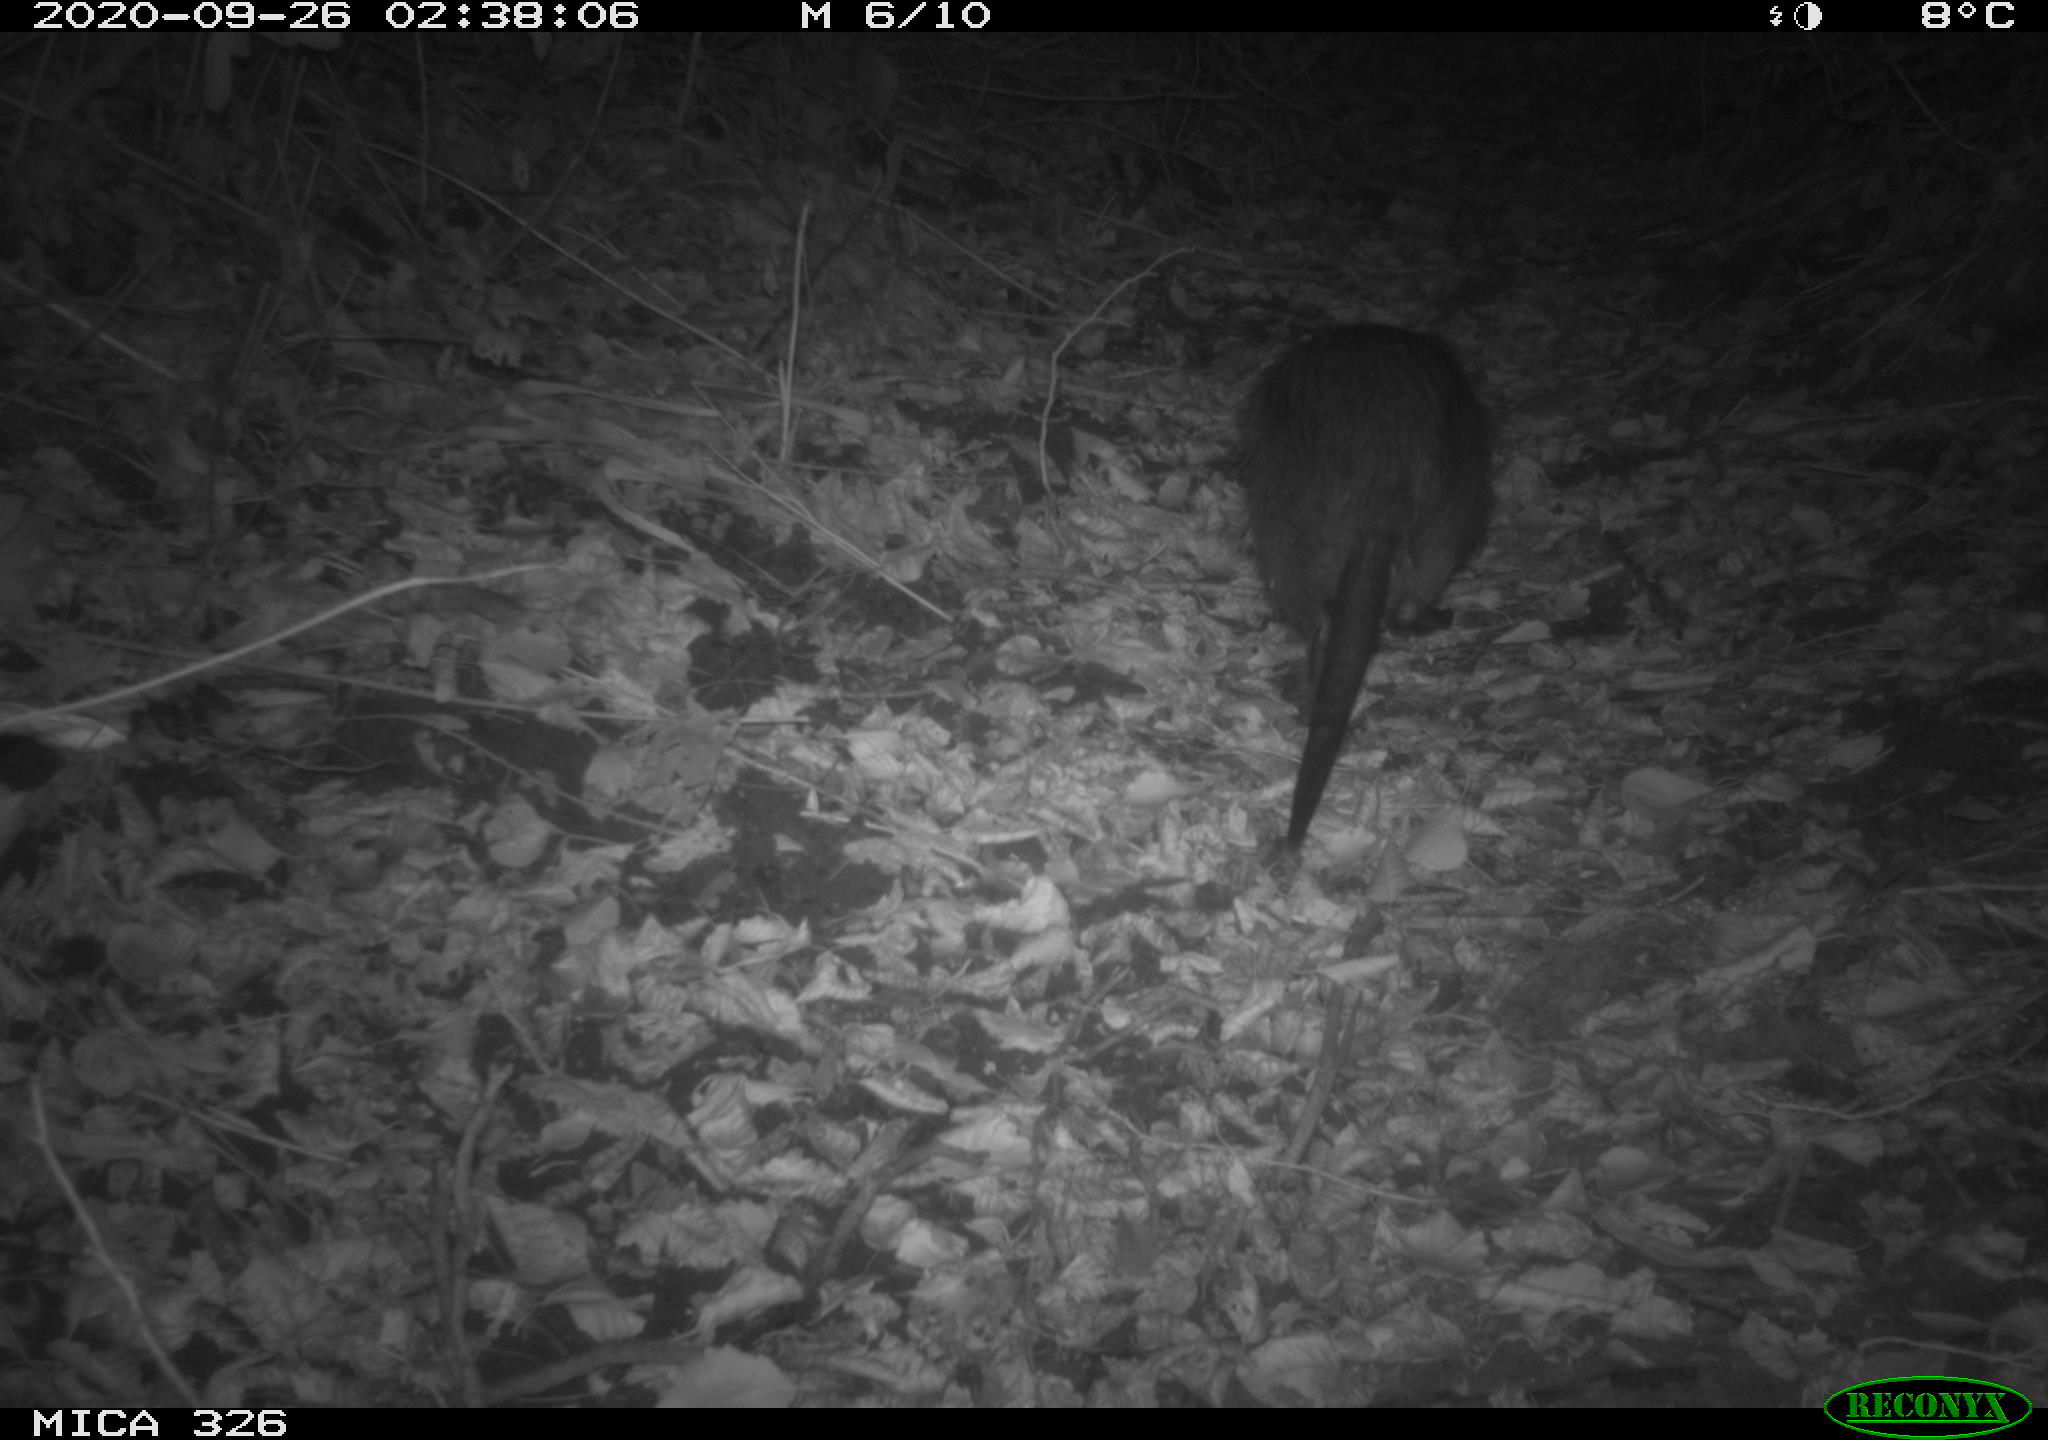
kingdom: Animalia
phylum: Chordata
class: Mammalia
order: Rodentia
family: Myocastoridae
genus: Myocastor
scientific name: Myocastor coypus
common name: Coypu
